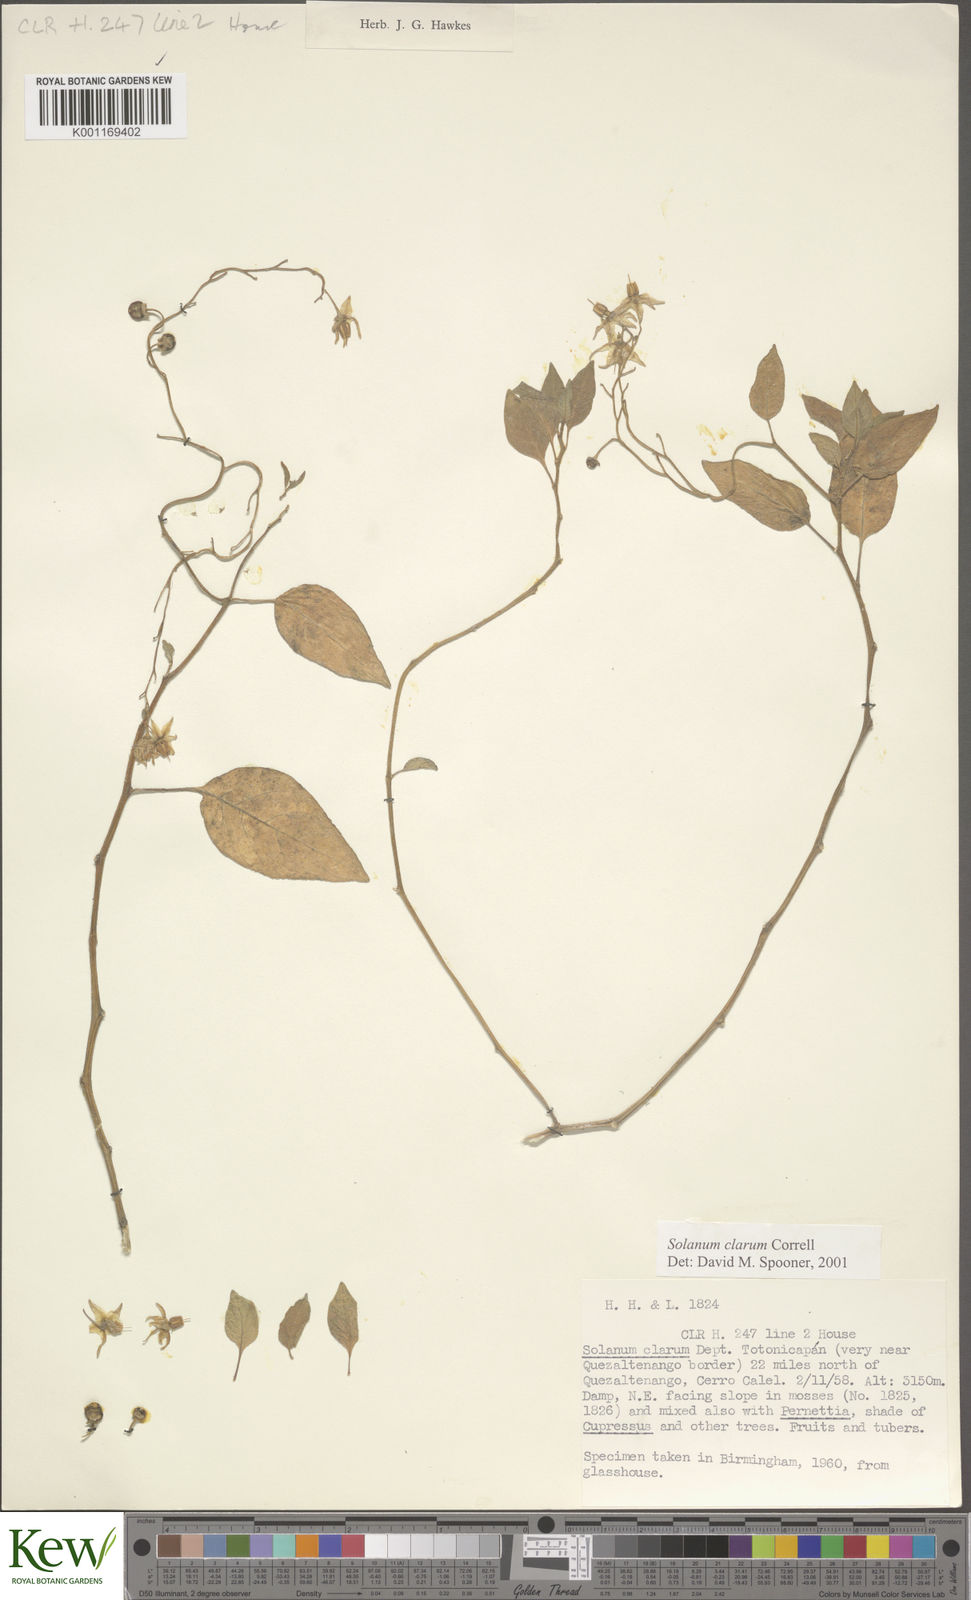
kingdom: Plantae
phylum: Tracheophyta
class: Magnoliopsida
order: Solanales
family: Solanaceae
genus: Solanum
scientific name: Solanum clarum
